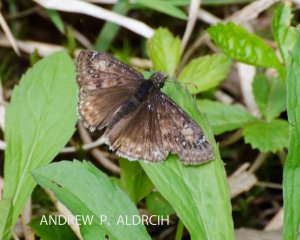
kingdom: Animalia
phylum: Arthropoda
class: Insecta
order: Lepidoptera
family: Hesperiidae
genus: Gesta
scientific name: Gesta
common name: Juvenal's Duskywing
